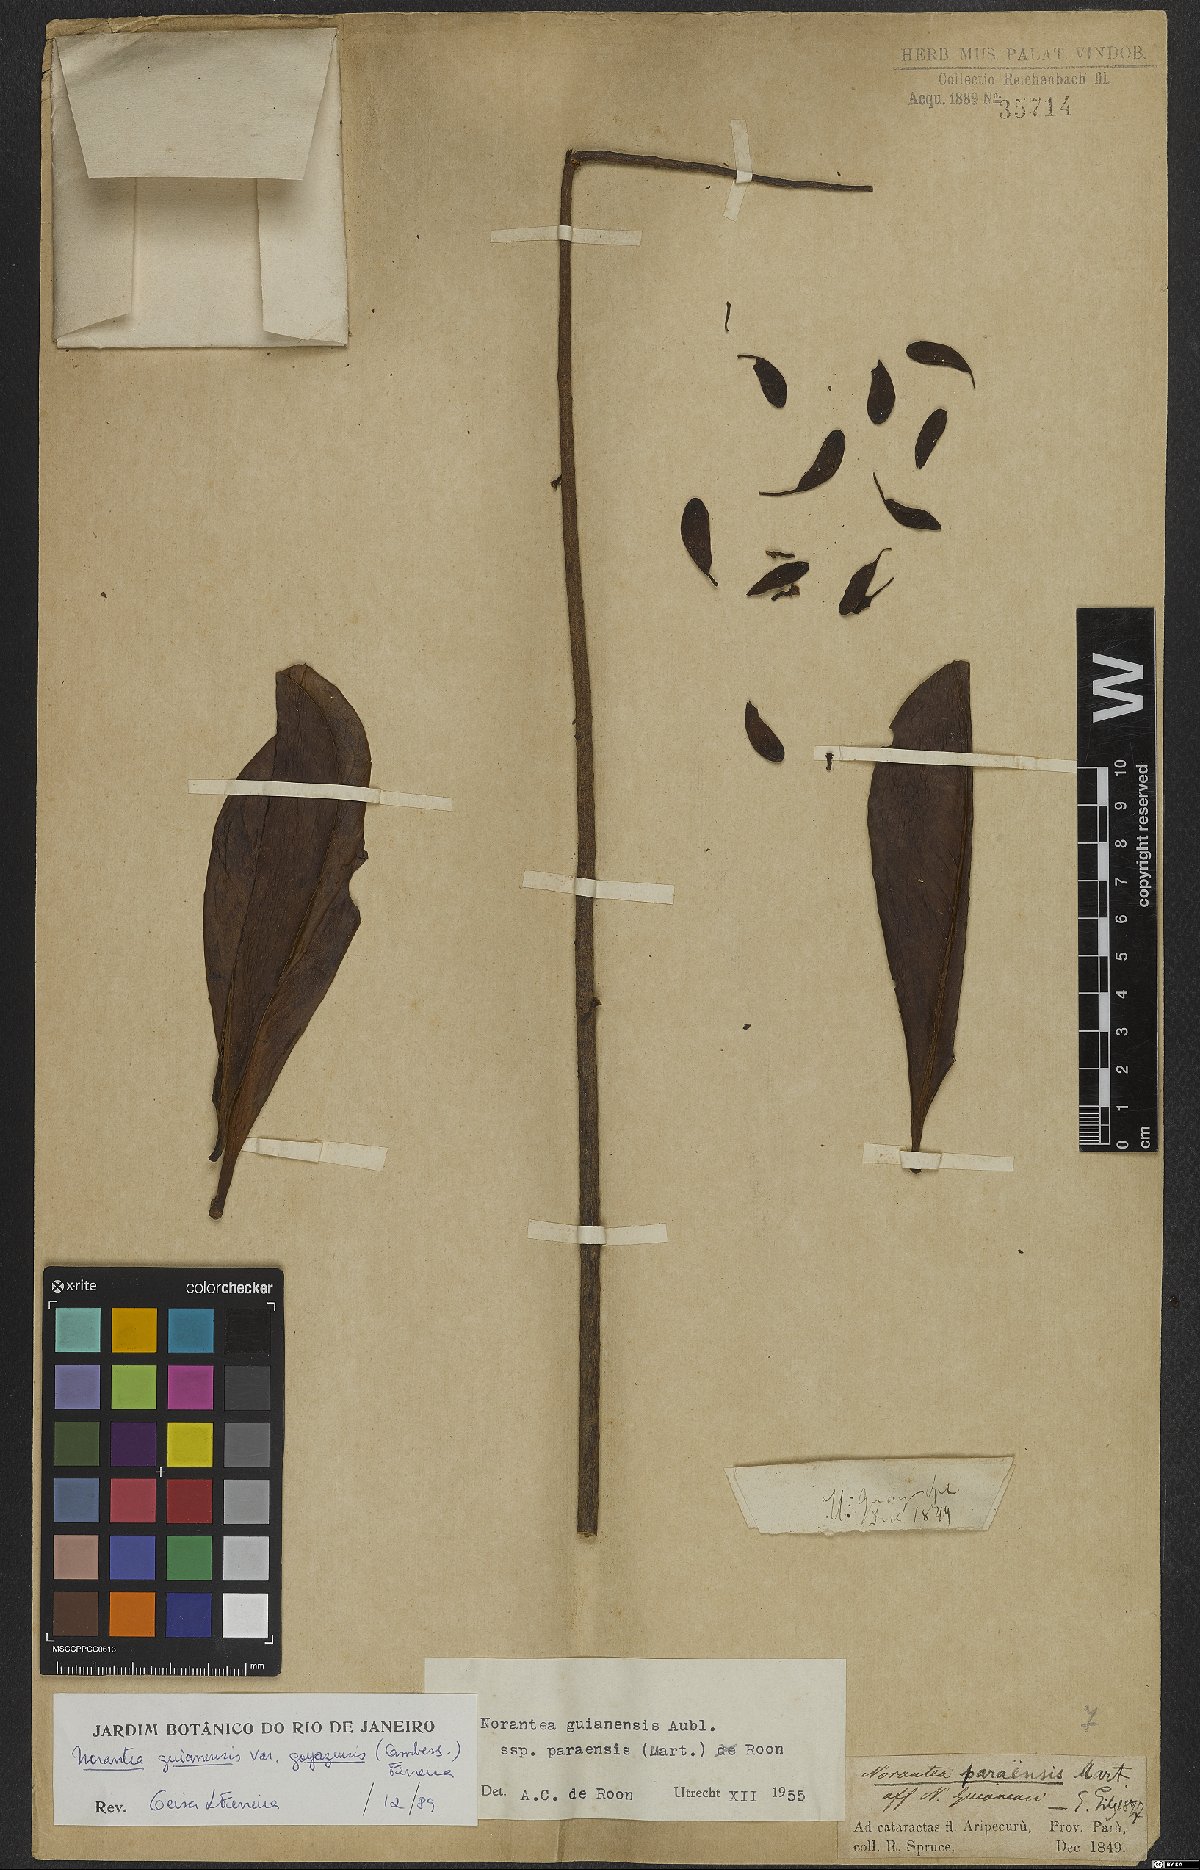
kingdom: Plantae
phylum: Tracheophyta
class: Magnoliopsida
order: Ericales
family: Marcgraviaceae
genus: Norantea
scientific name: Norantea goyazensis
